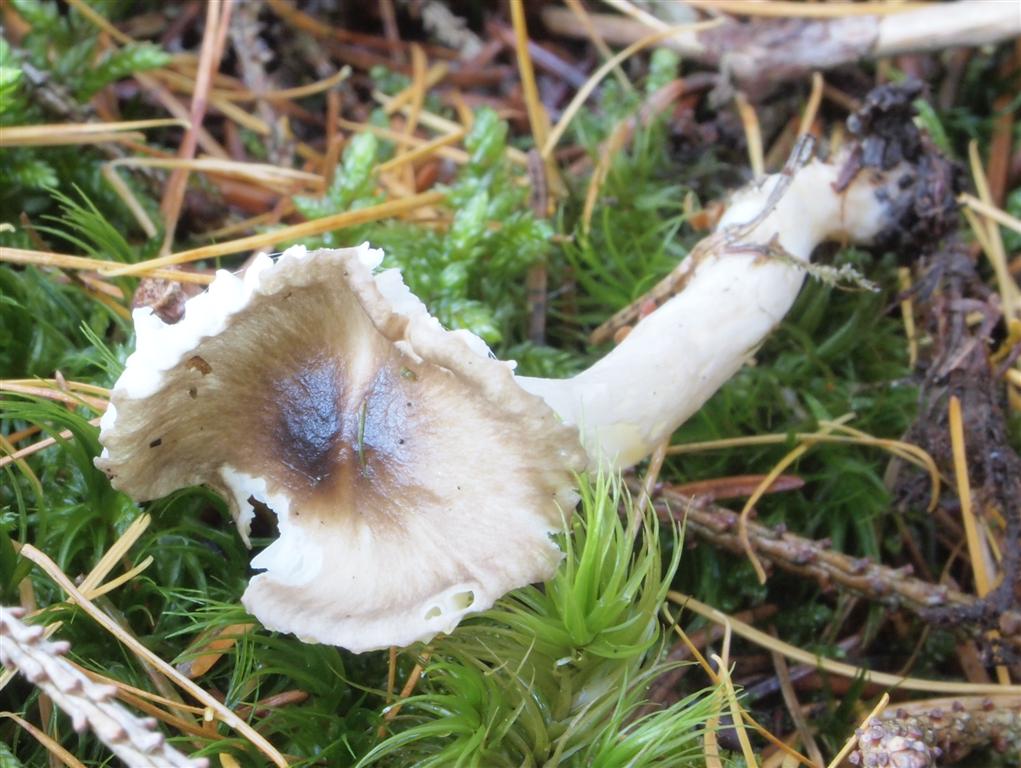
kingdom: Fungi
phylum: Basidiomycota
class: Agaricomycetes
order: Agaricales
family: Hygrophoraceae
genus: Hygrophorus
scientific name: Hygrophorus olivaceoalbus
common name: hvidbrun sneglehat
